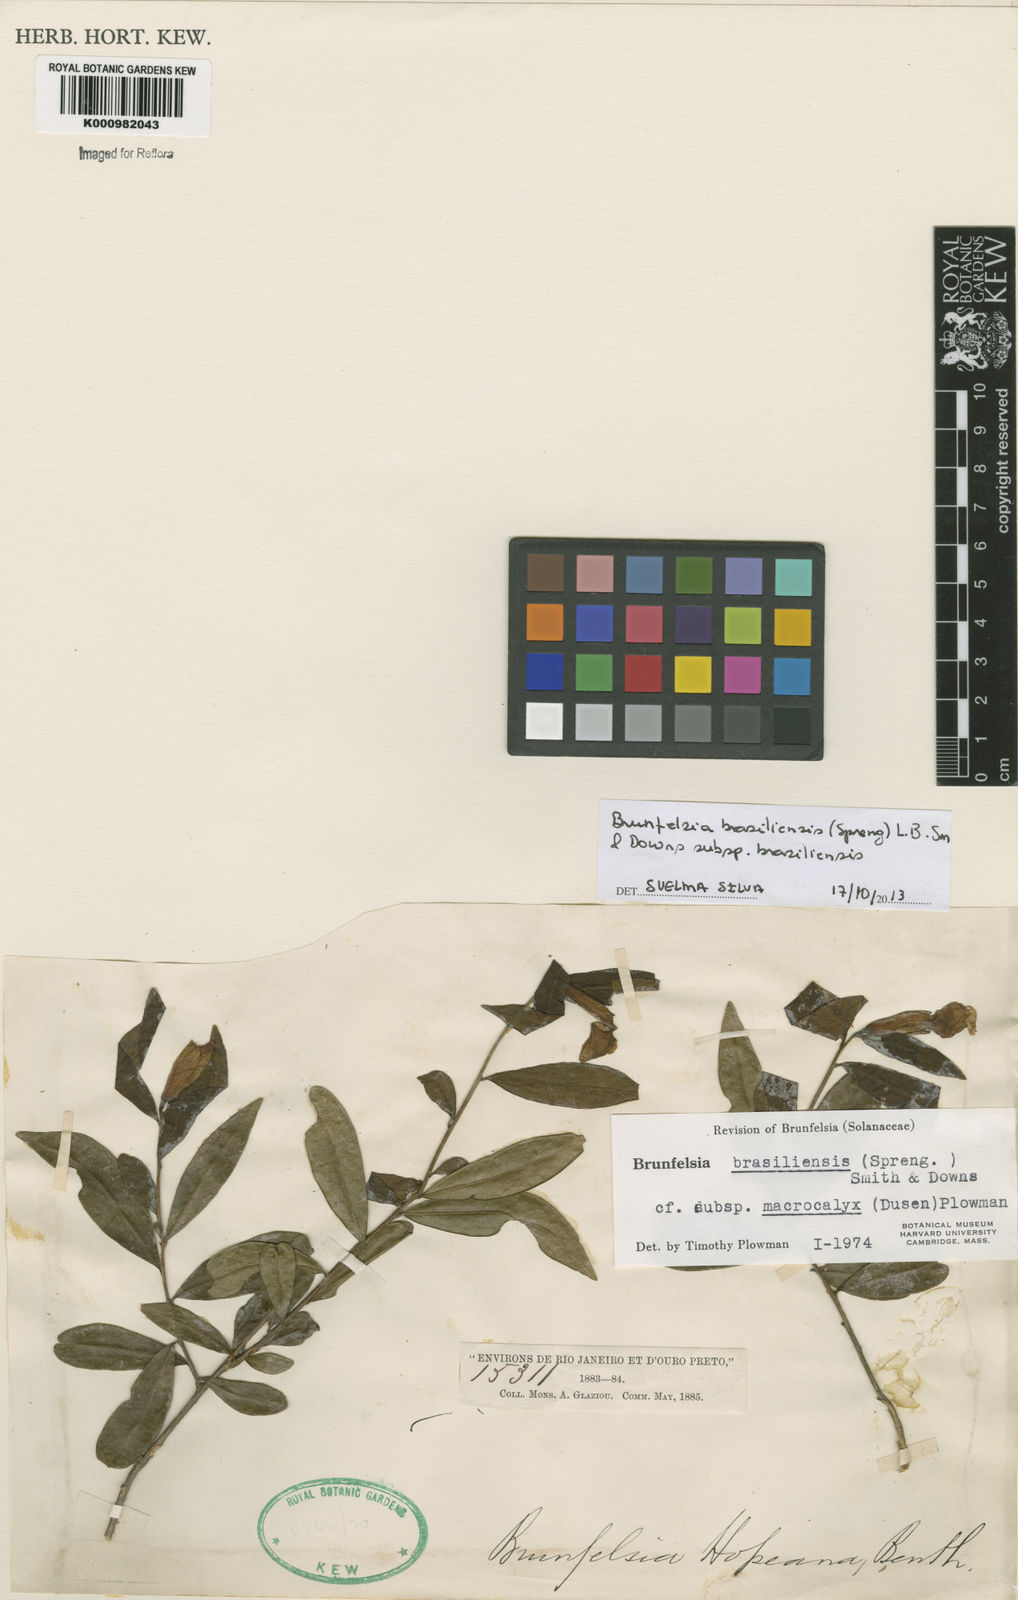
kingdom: Plantae
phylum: Tracheophyta
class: Magnoliopsida
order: Solanales
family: Solanaceae
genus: Brunfelsia
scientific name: Brunfelsia
